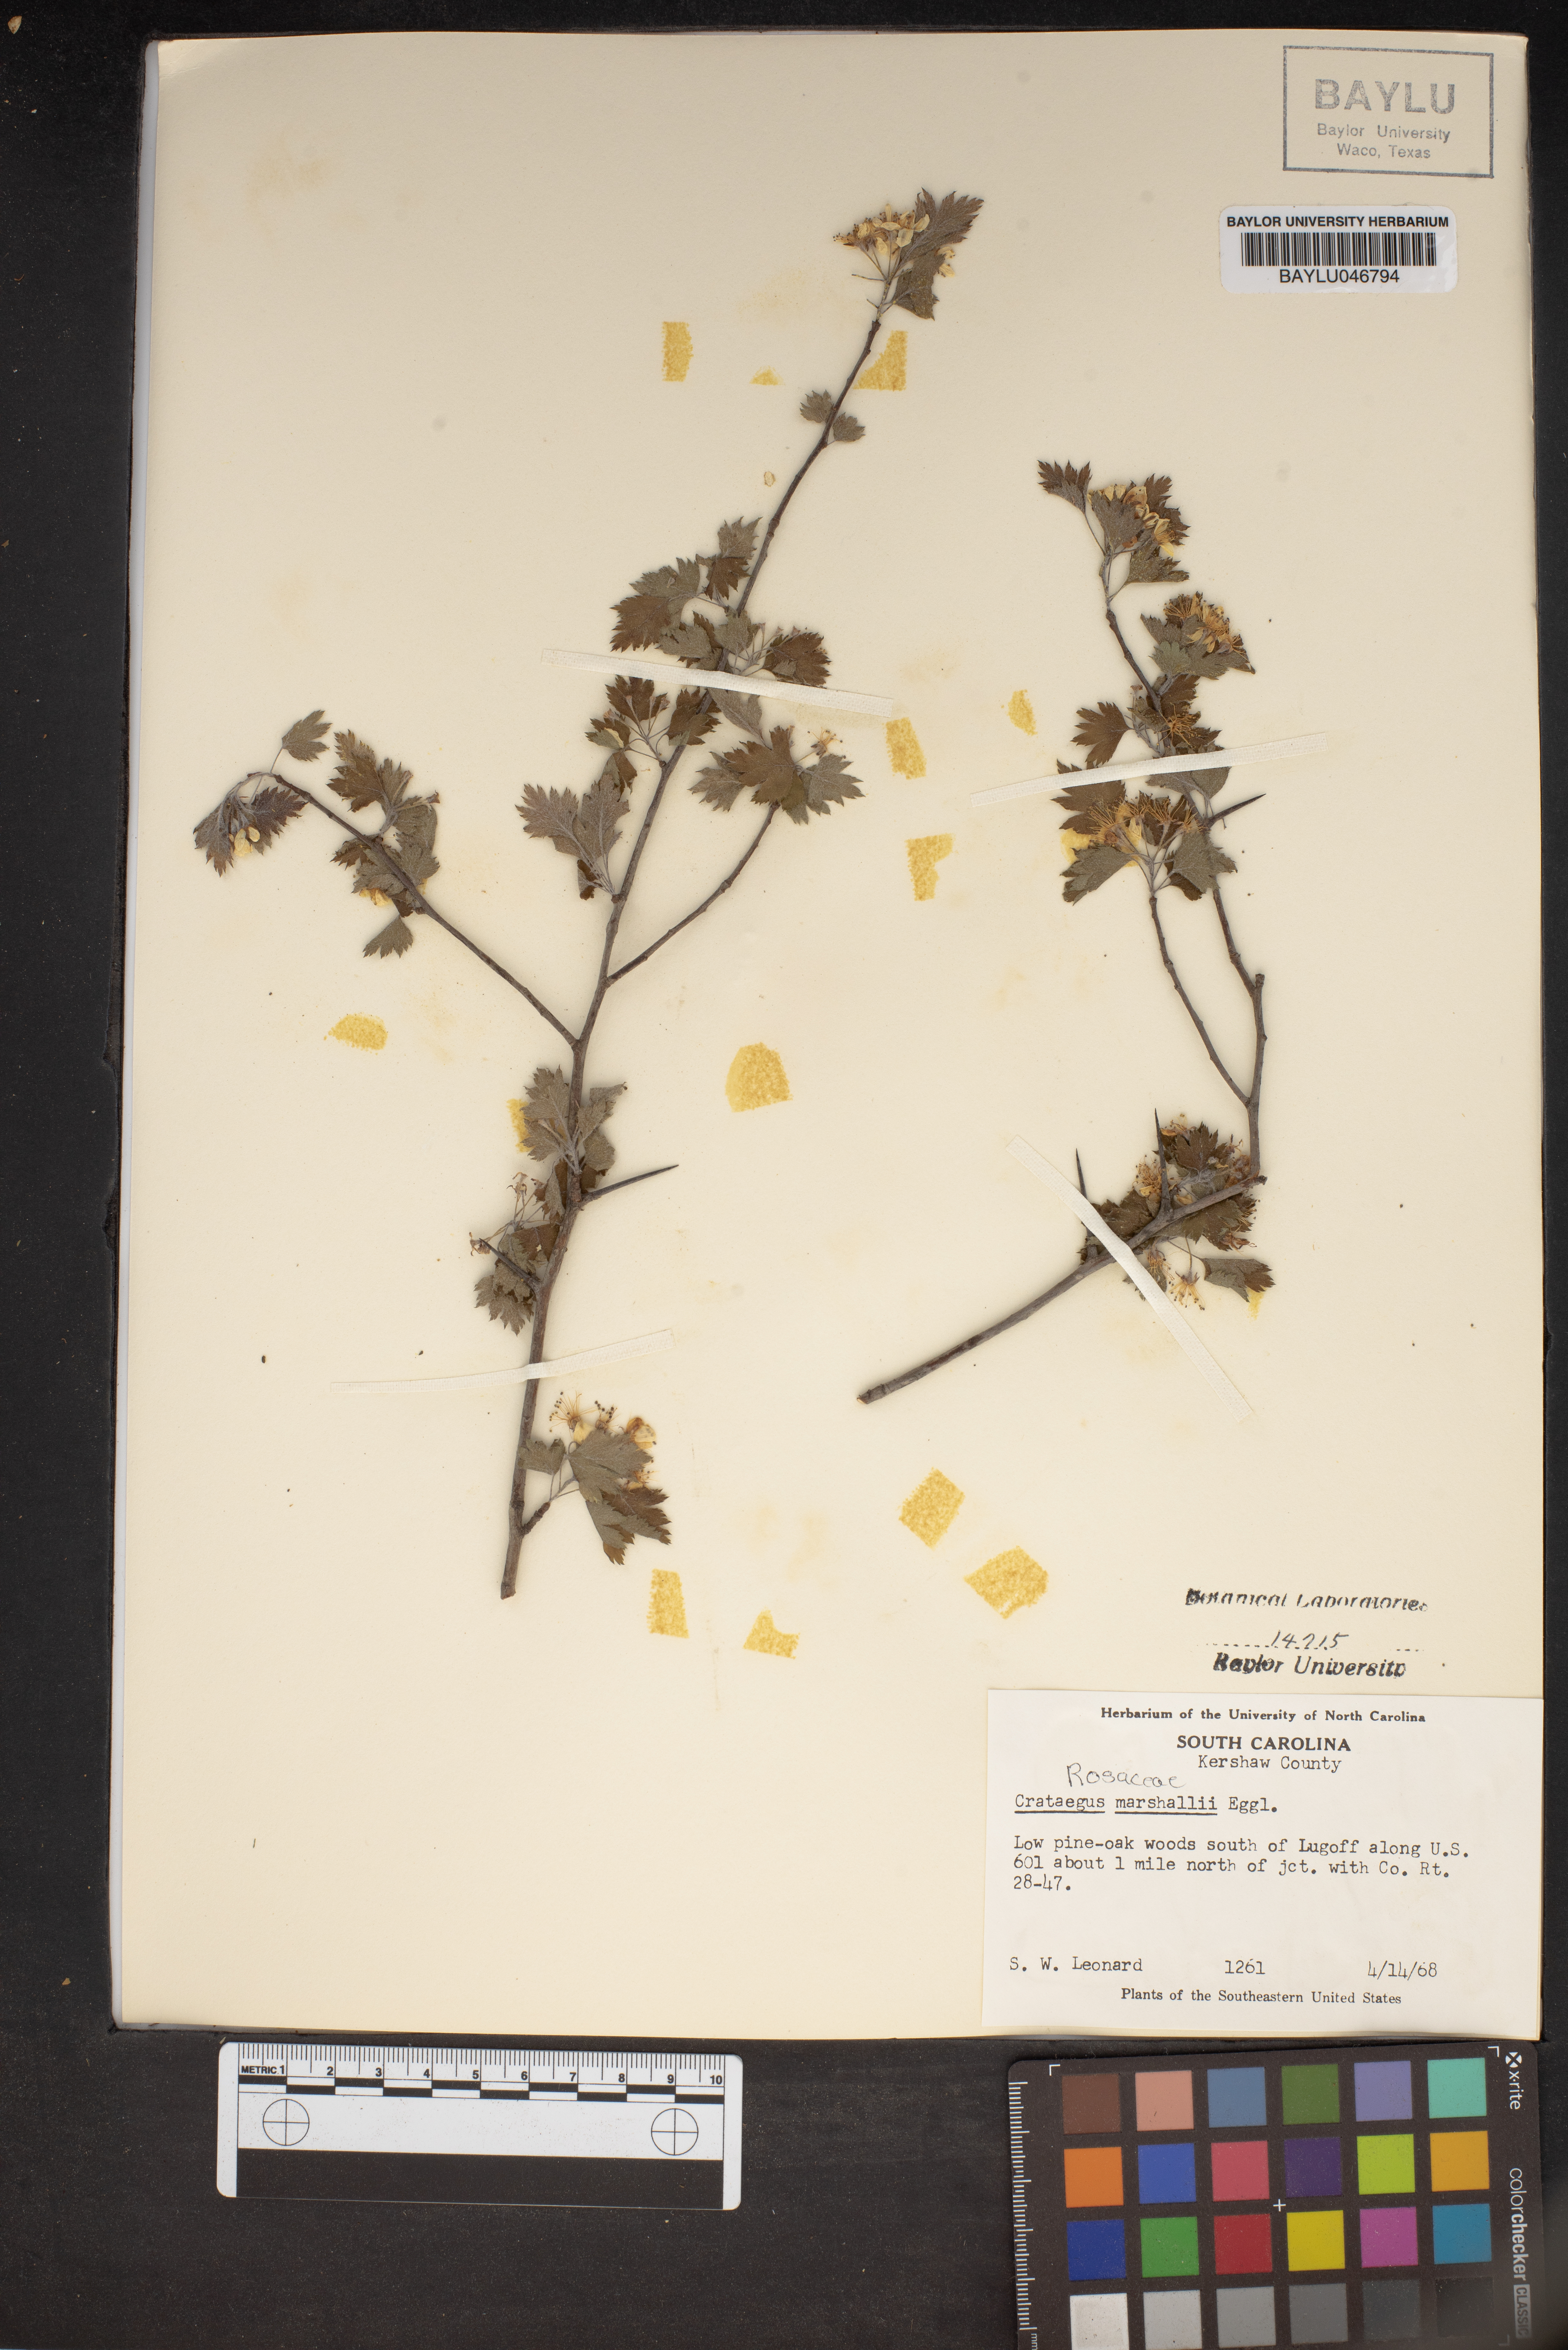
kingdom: Plantae
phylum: Tracheophyta
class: Magnoliopsida
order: Rosales
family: Rosaceae
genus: Crataegus
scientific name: Crataegus marshallii
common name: Parsley-hawthorn
